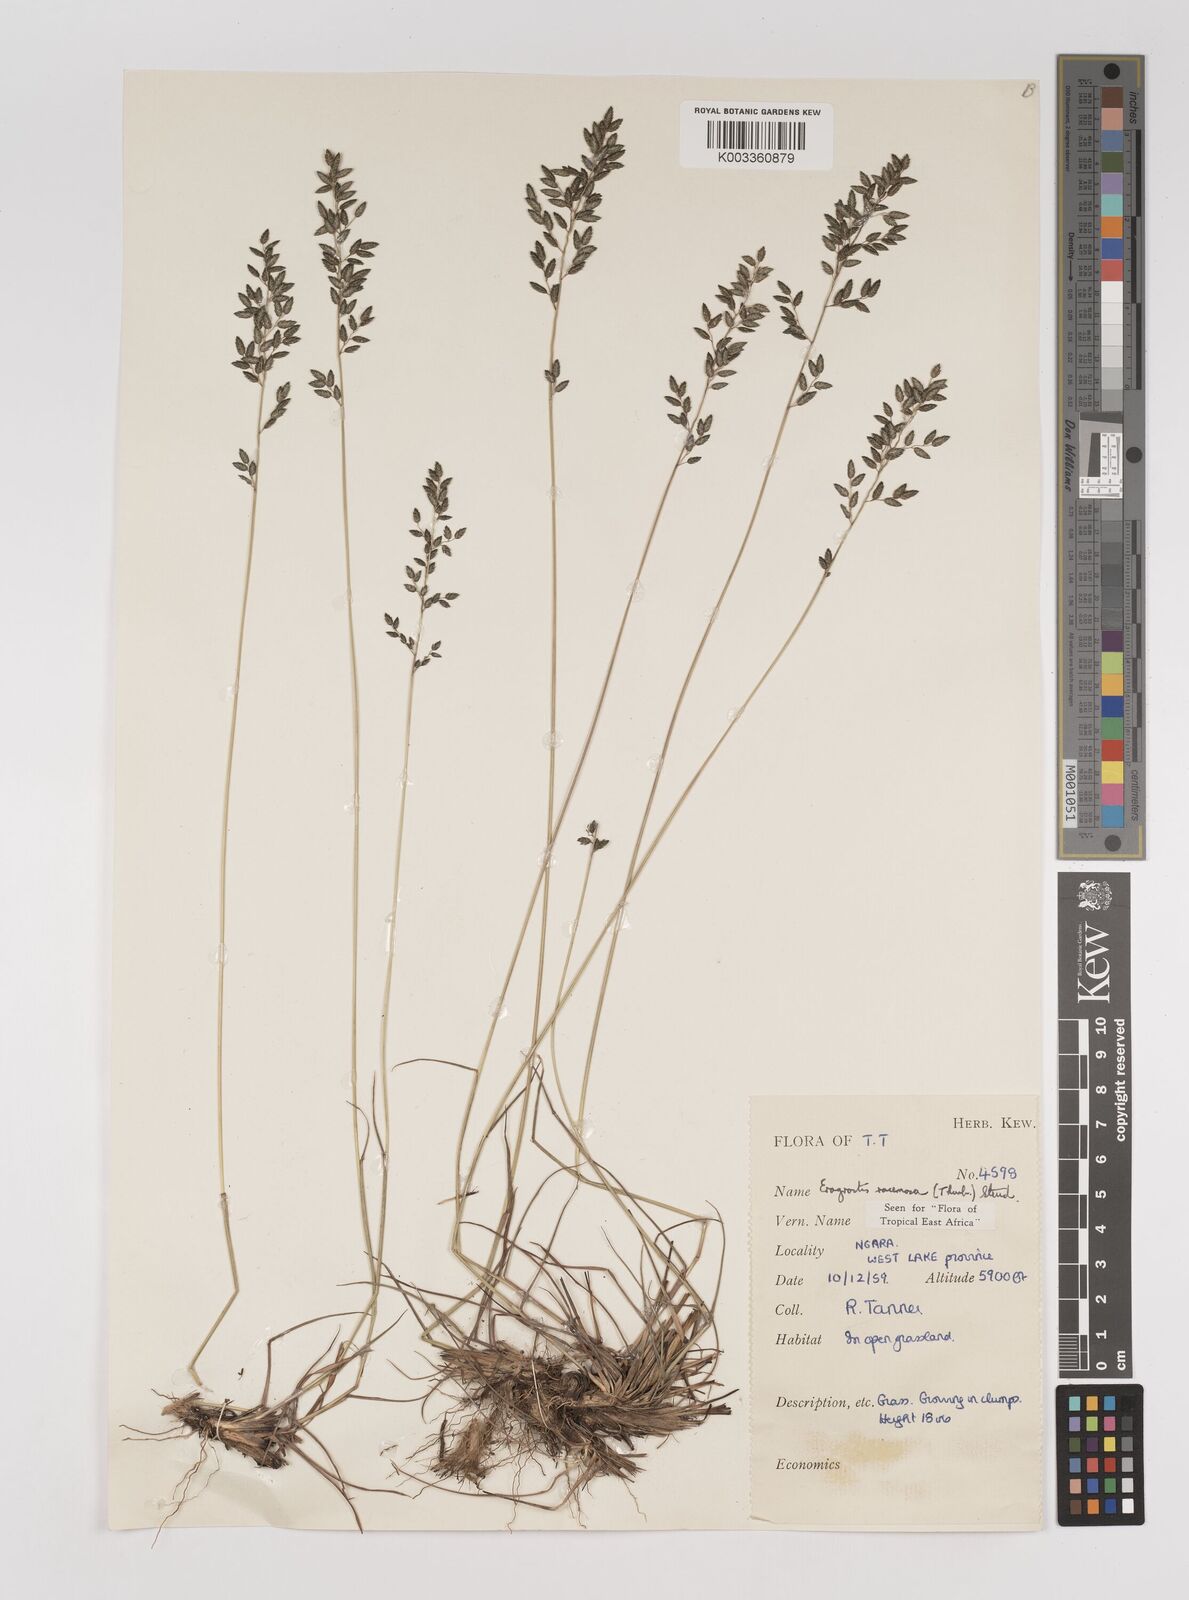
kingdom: Plantae
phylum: Tracheophyta
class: Liliopsida
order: Poales
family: Poaceae
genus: Eragrostis
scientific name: Eragrostis racemosa
